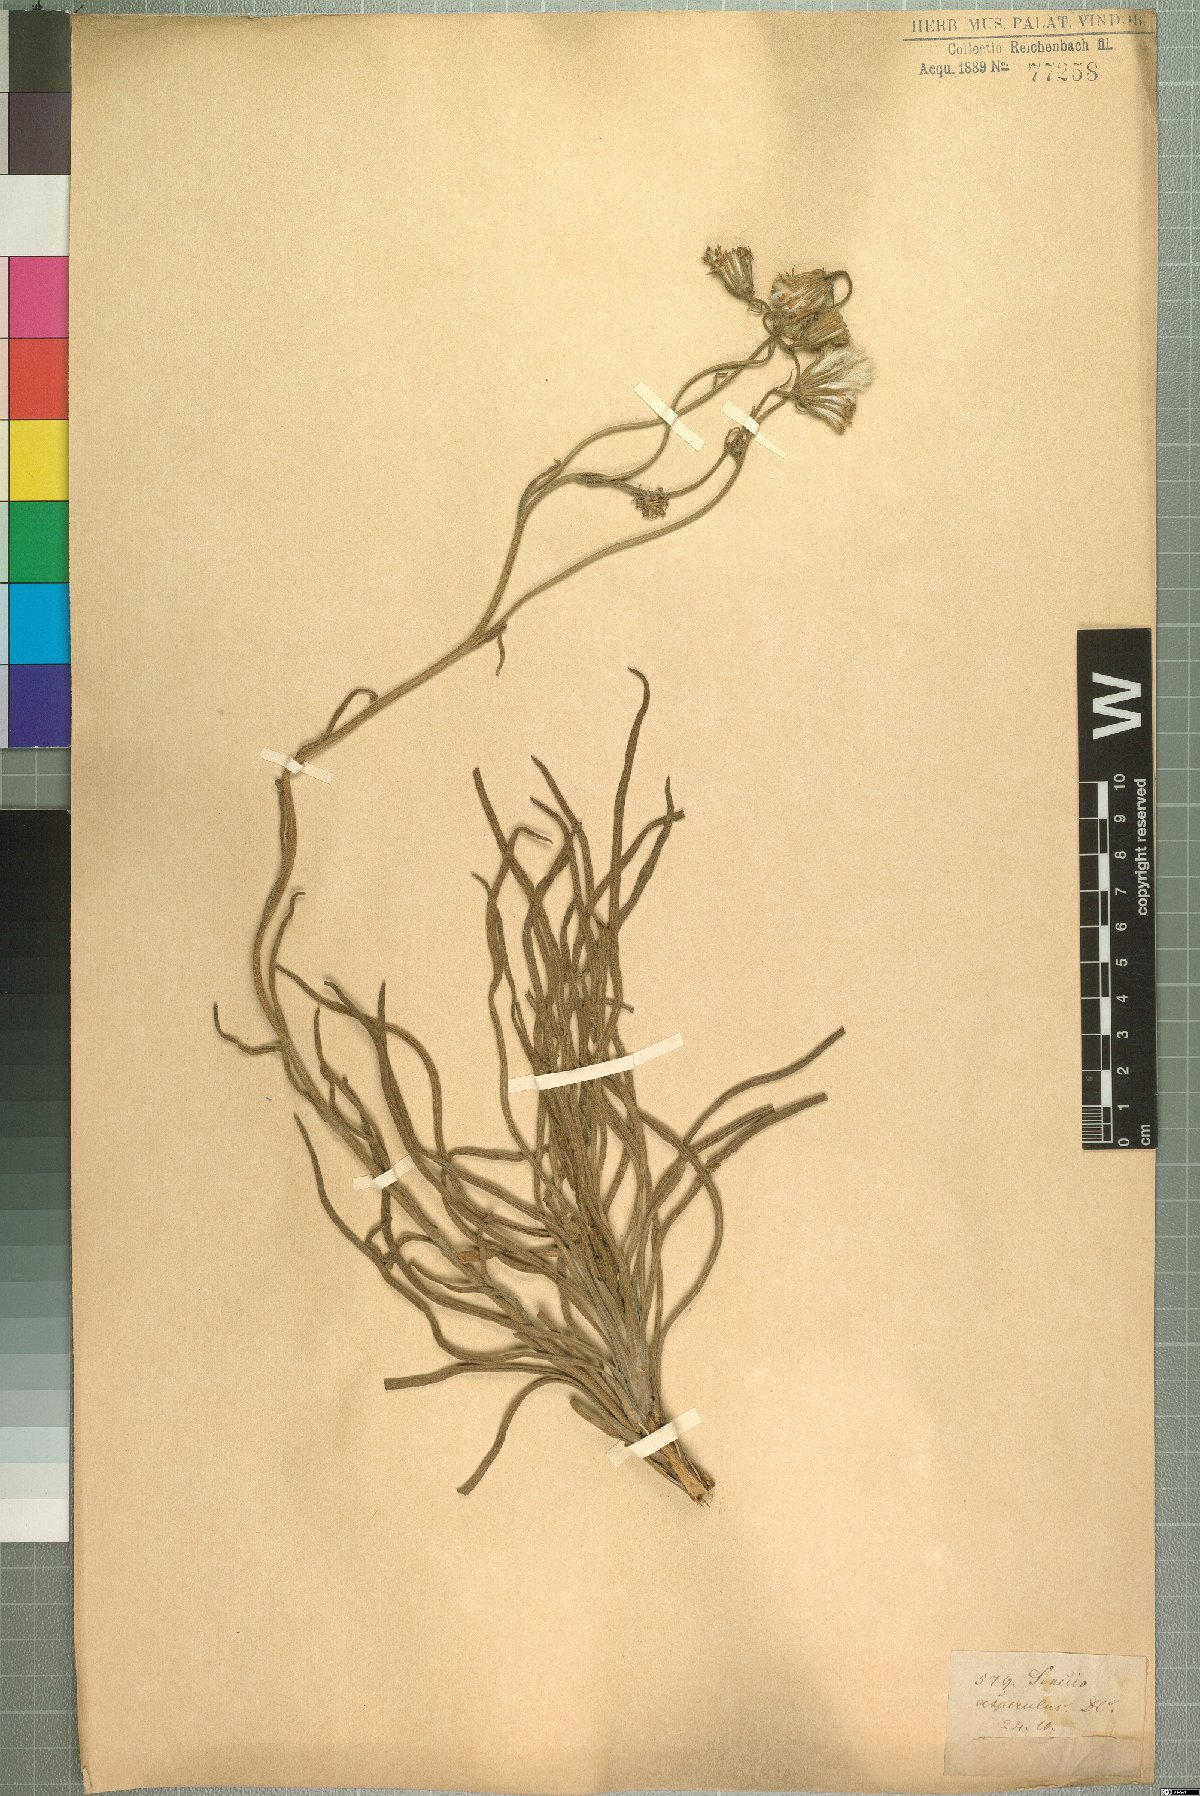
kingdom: Plantae
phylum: Tracheophyta
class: Magnoliopsida
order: Asterales
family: Asteraceae
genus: Senecio
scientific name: Senecio asperulus
